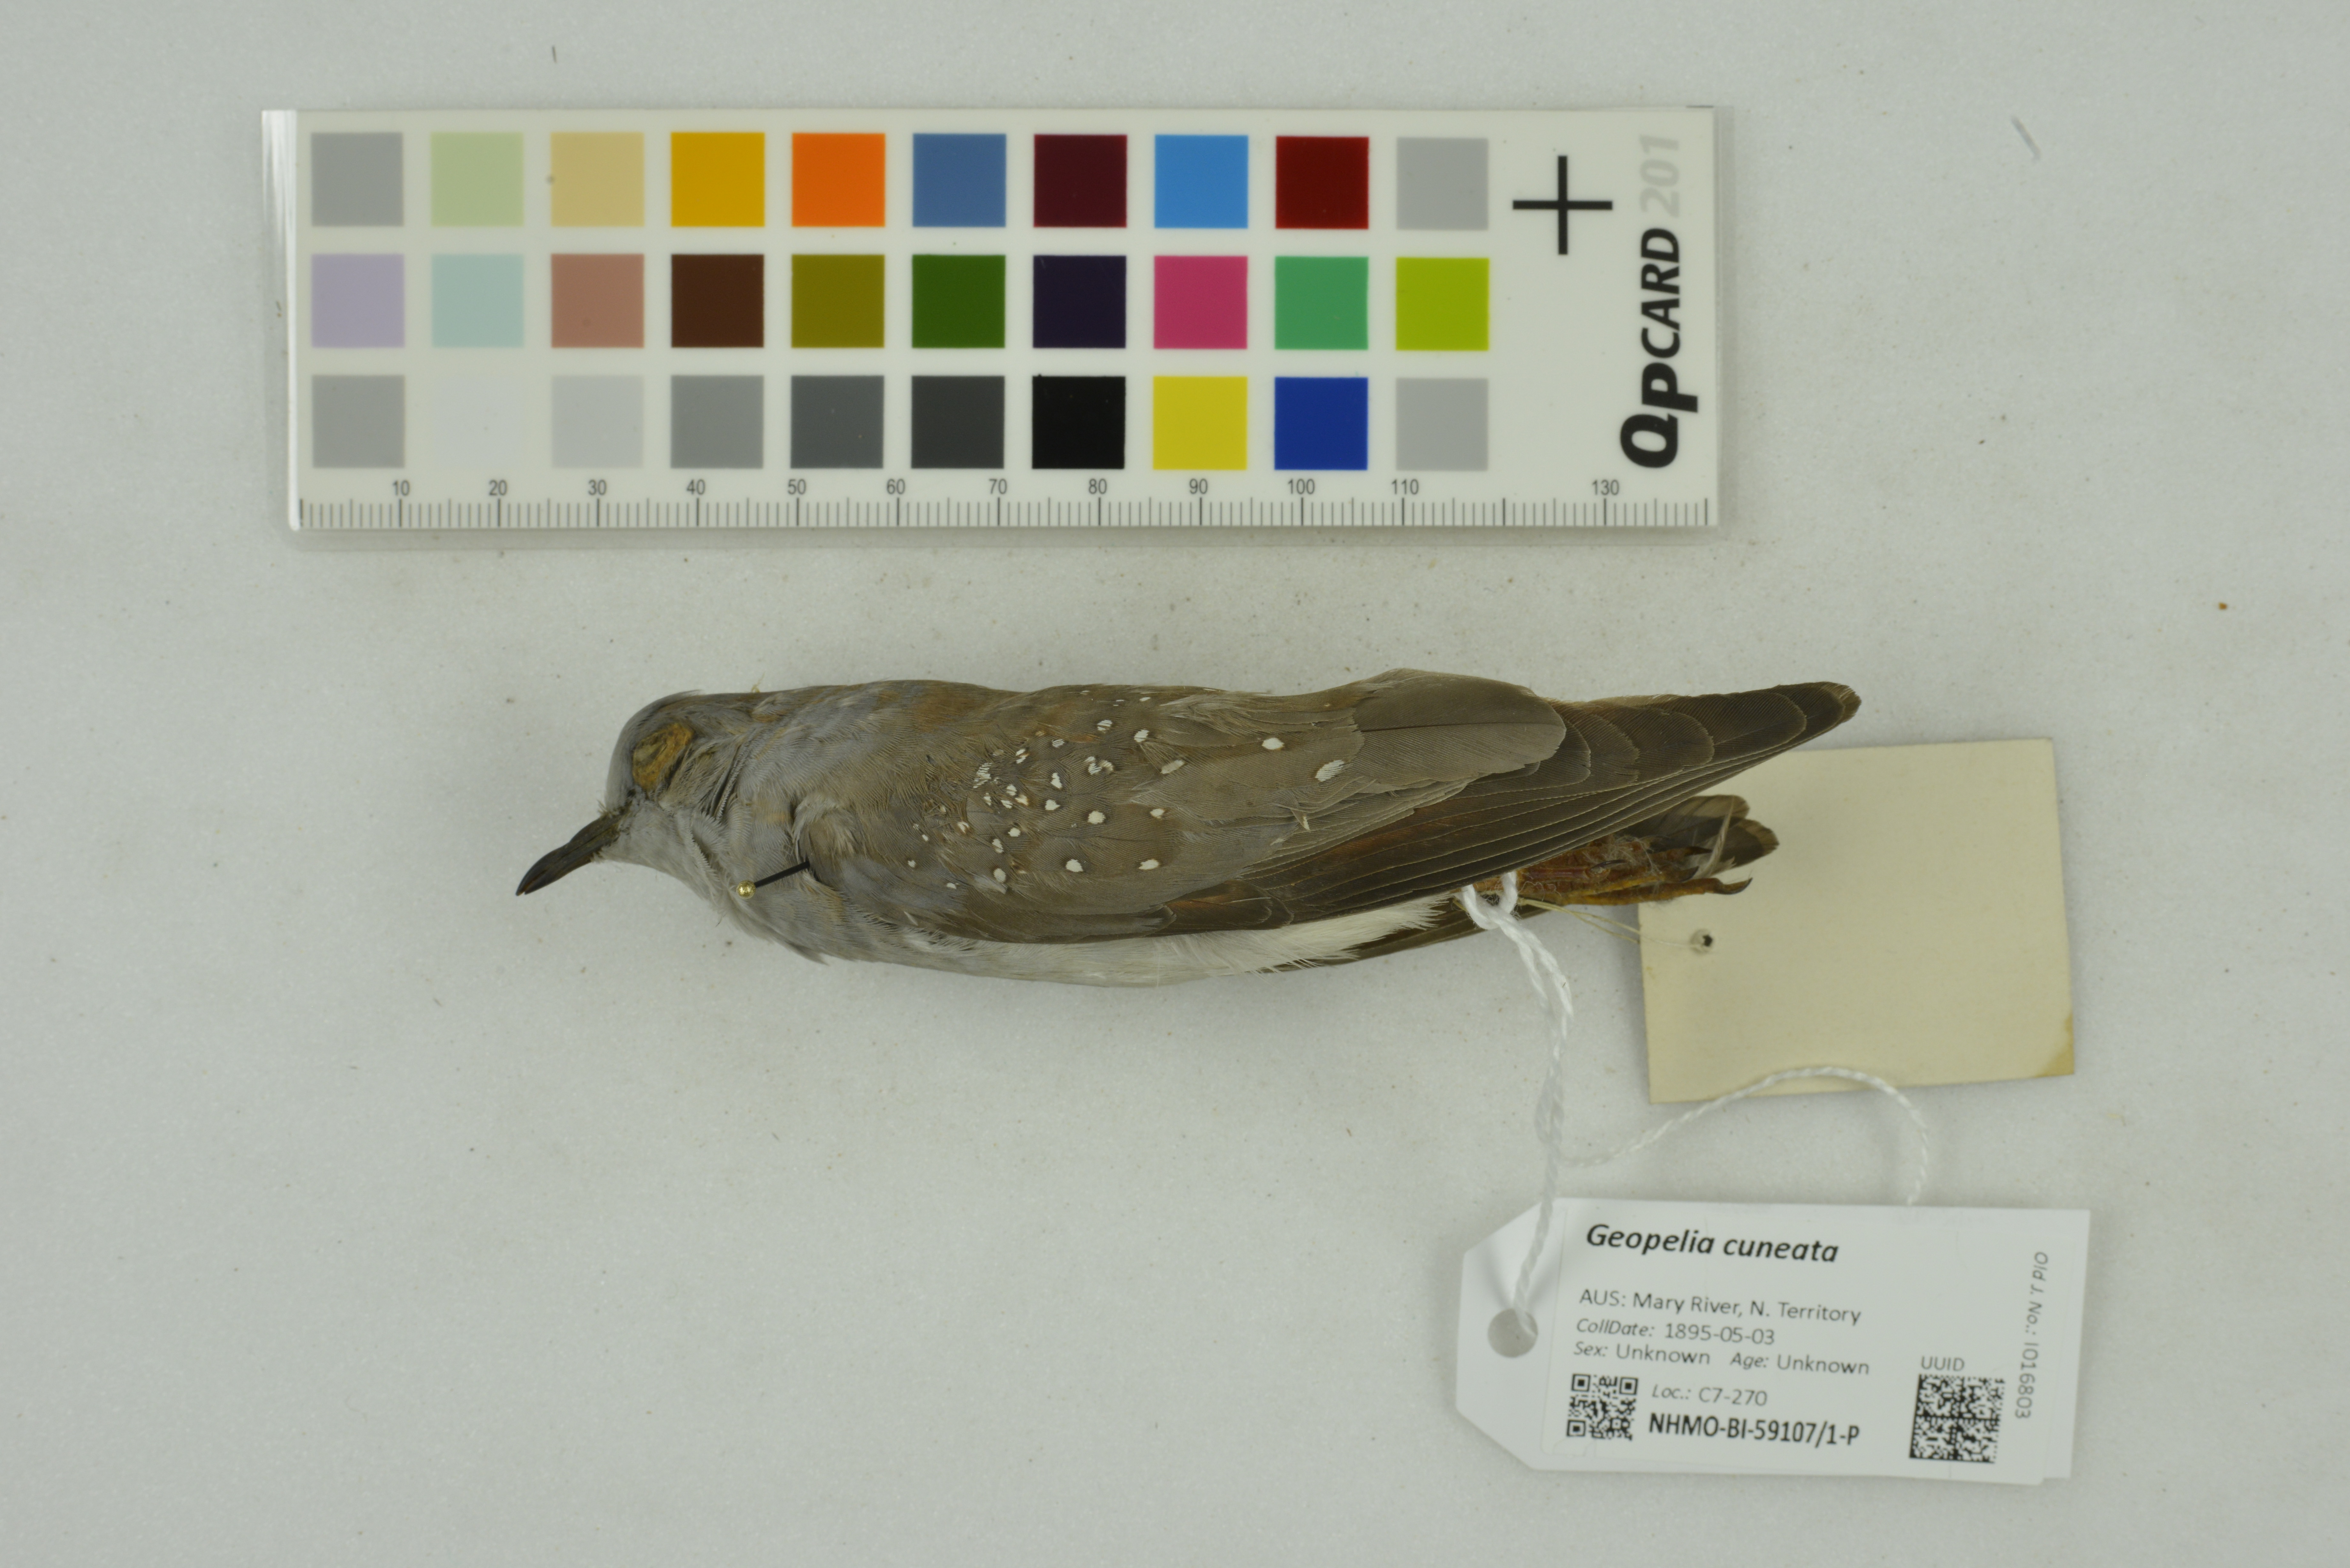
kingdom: Animalia
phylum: Chordata
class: Aves
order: Columbiformes
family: Columbidae
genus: Geopelia
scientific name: Geopelia cuneata
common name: Diamond dove
